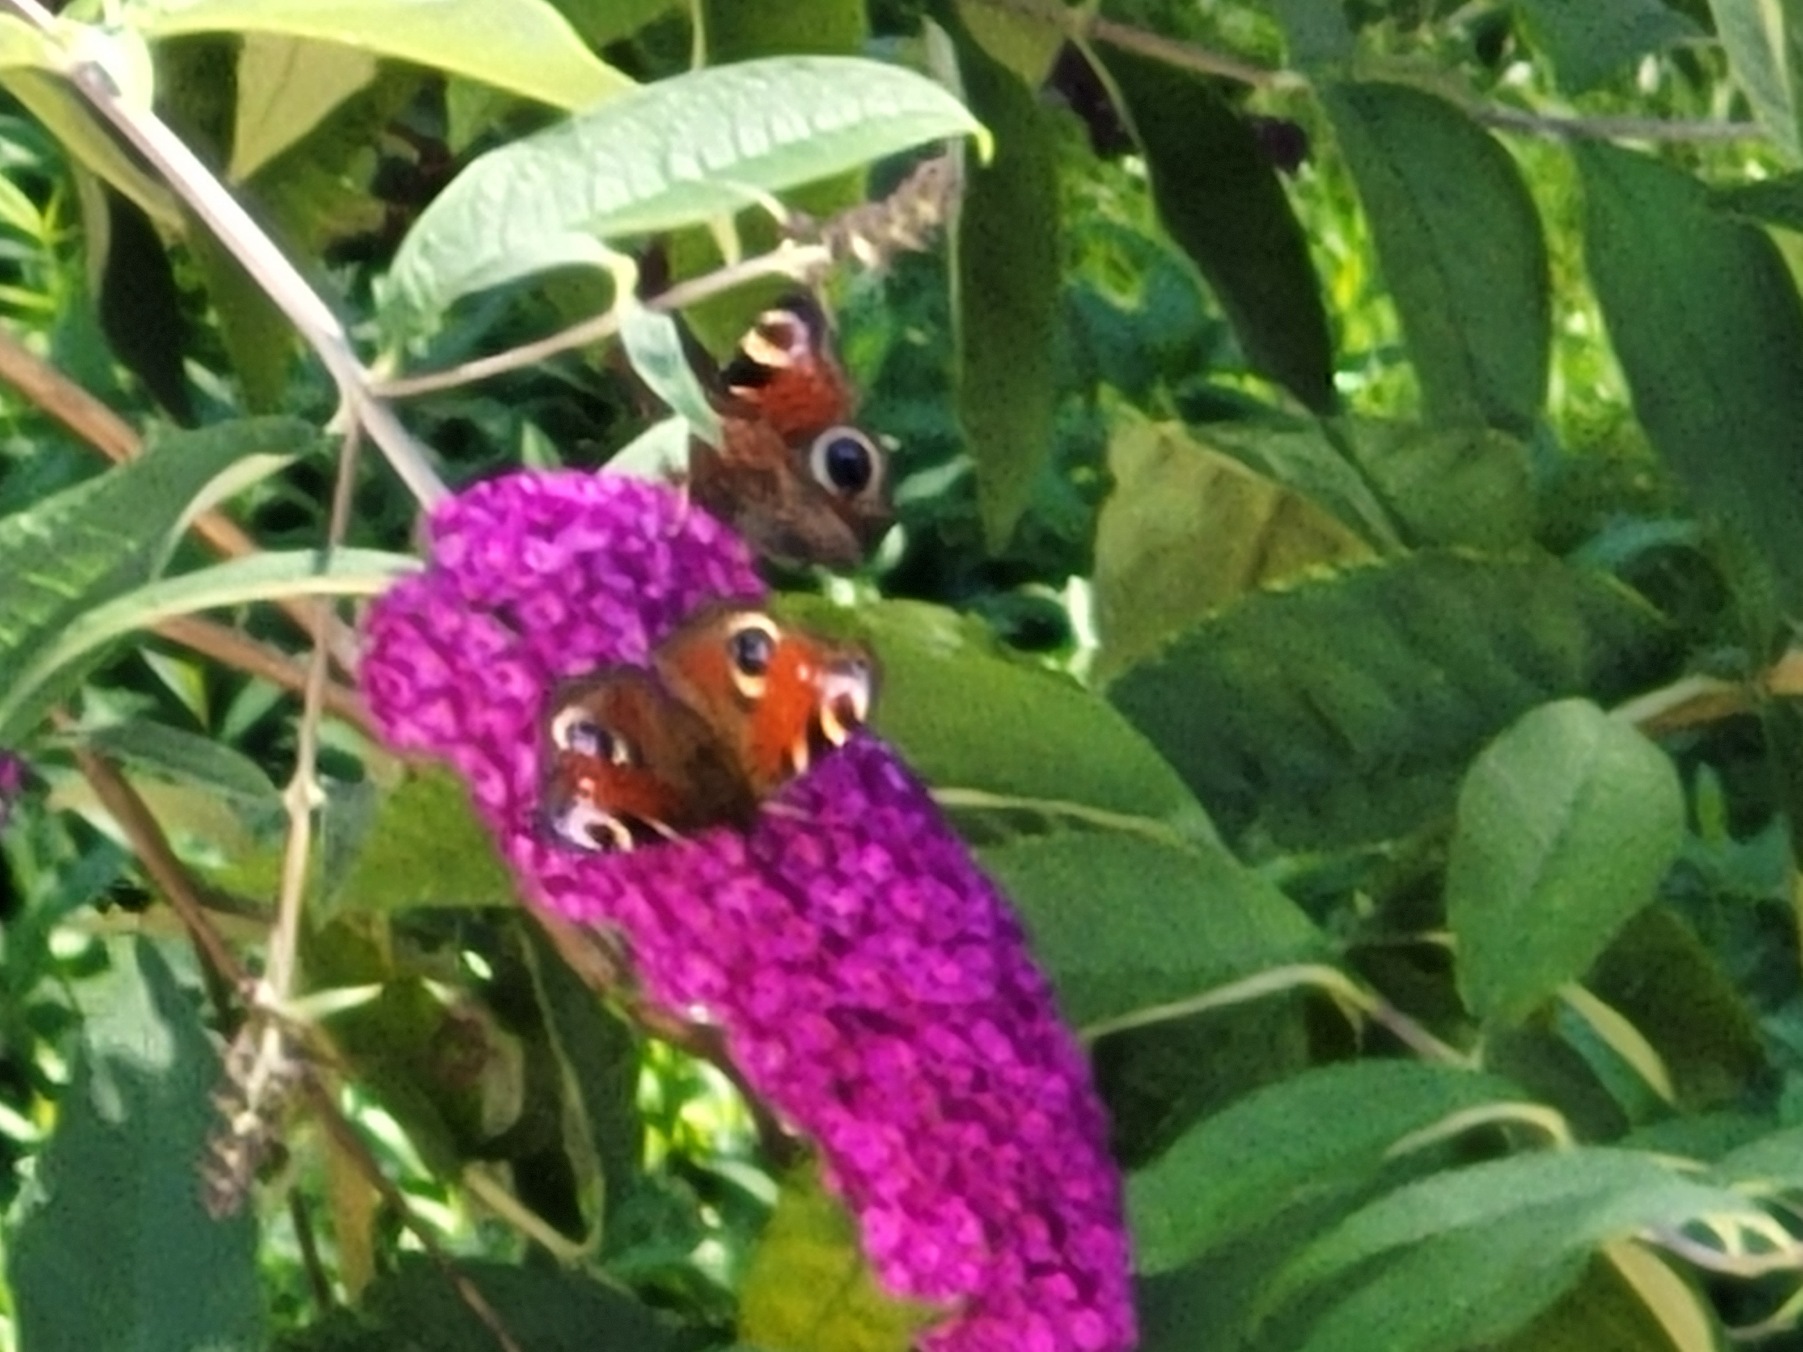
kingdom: Animalia
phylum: Arthropoda
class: Insecta
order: Lepidoptera
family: Nymphalidae
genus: Aglais
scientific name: Aglais io
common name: Dagpåfugleøje
